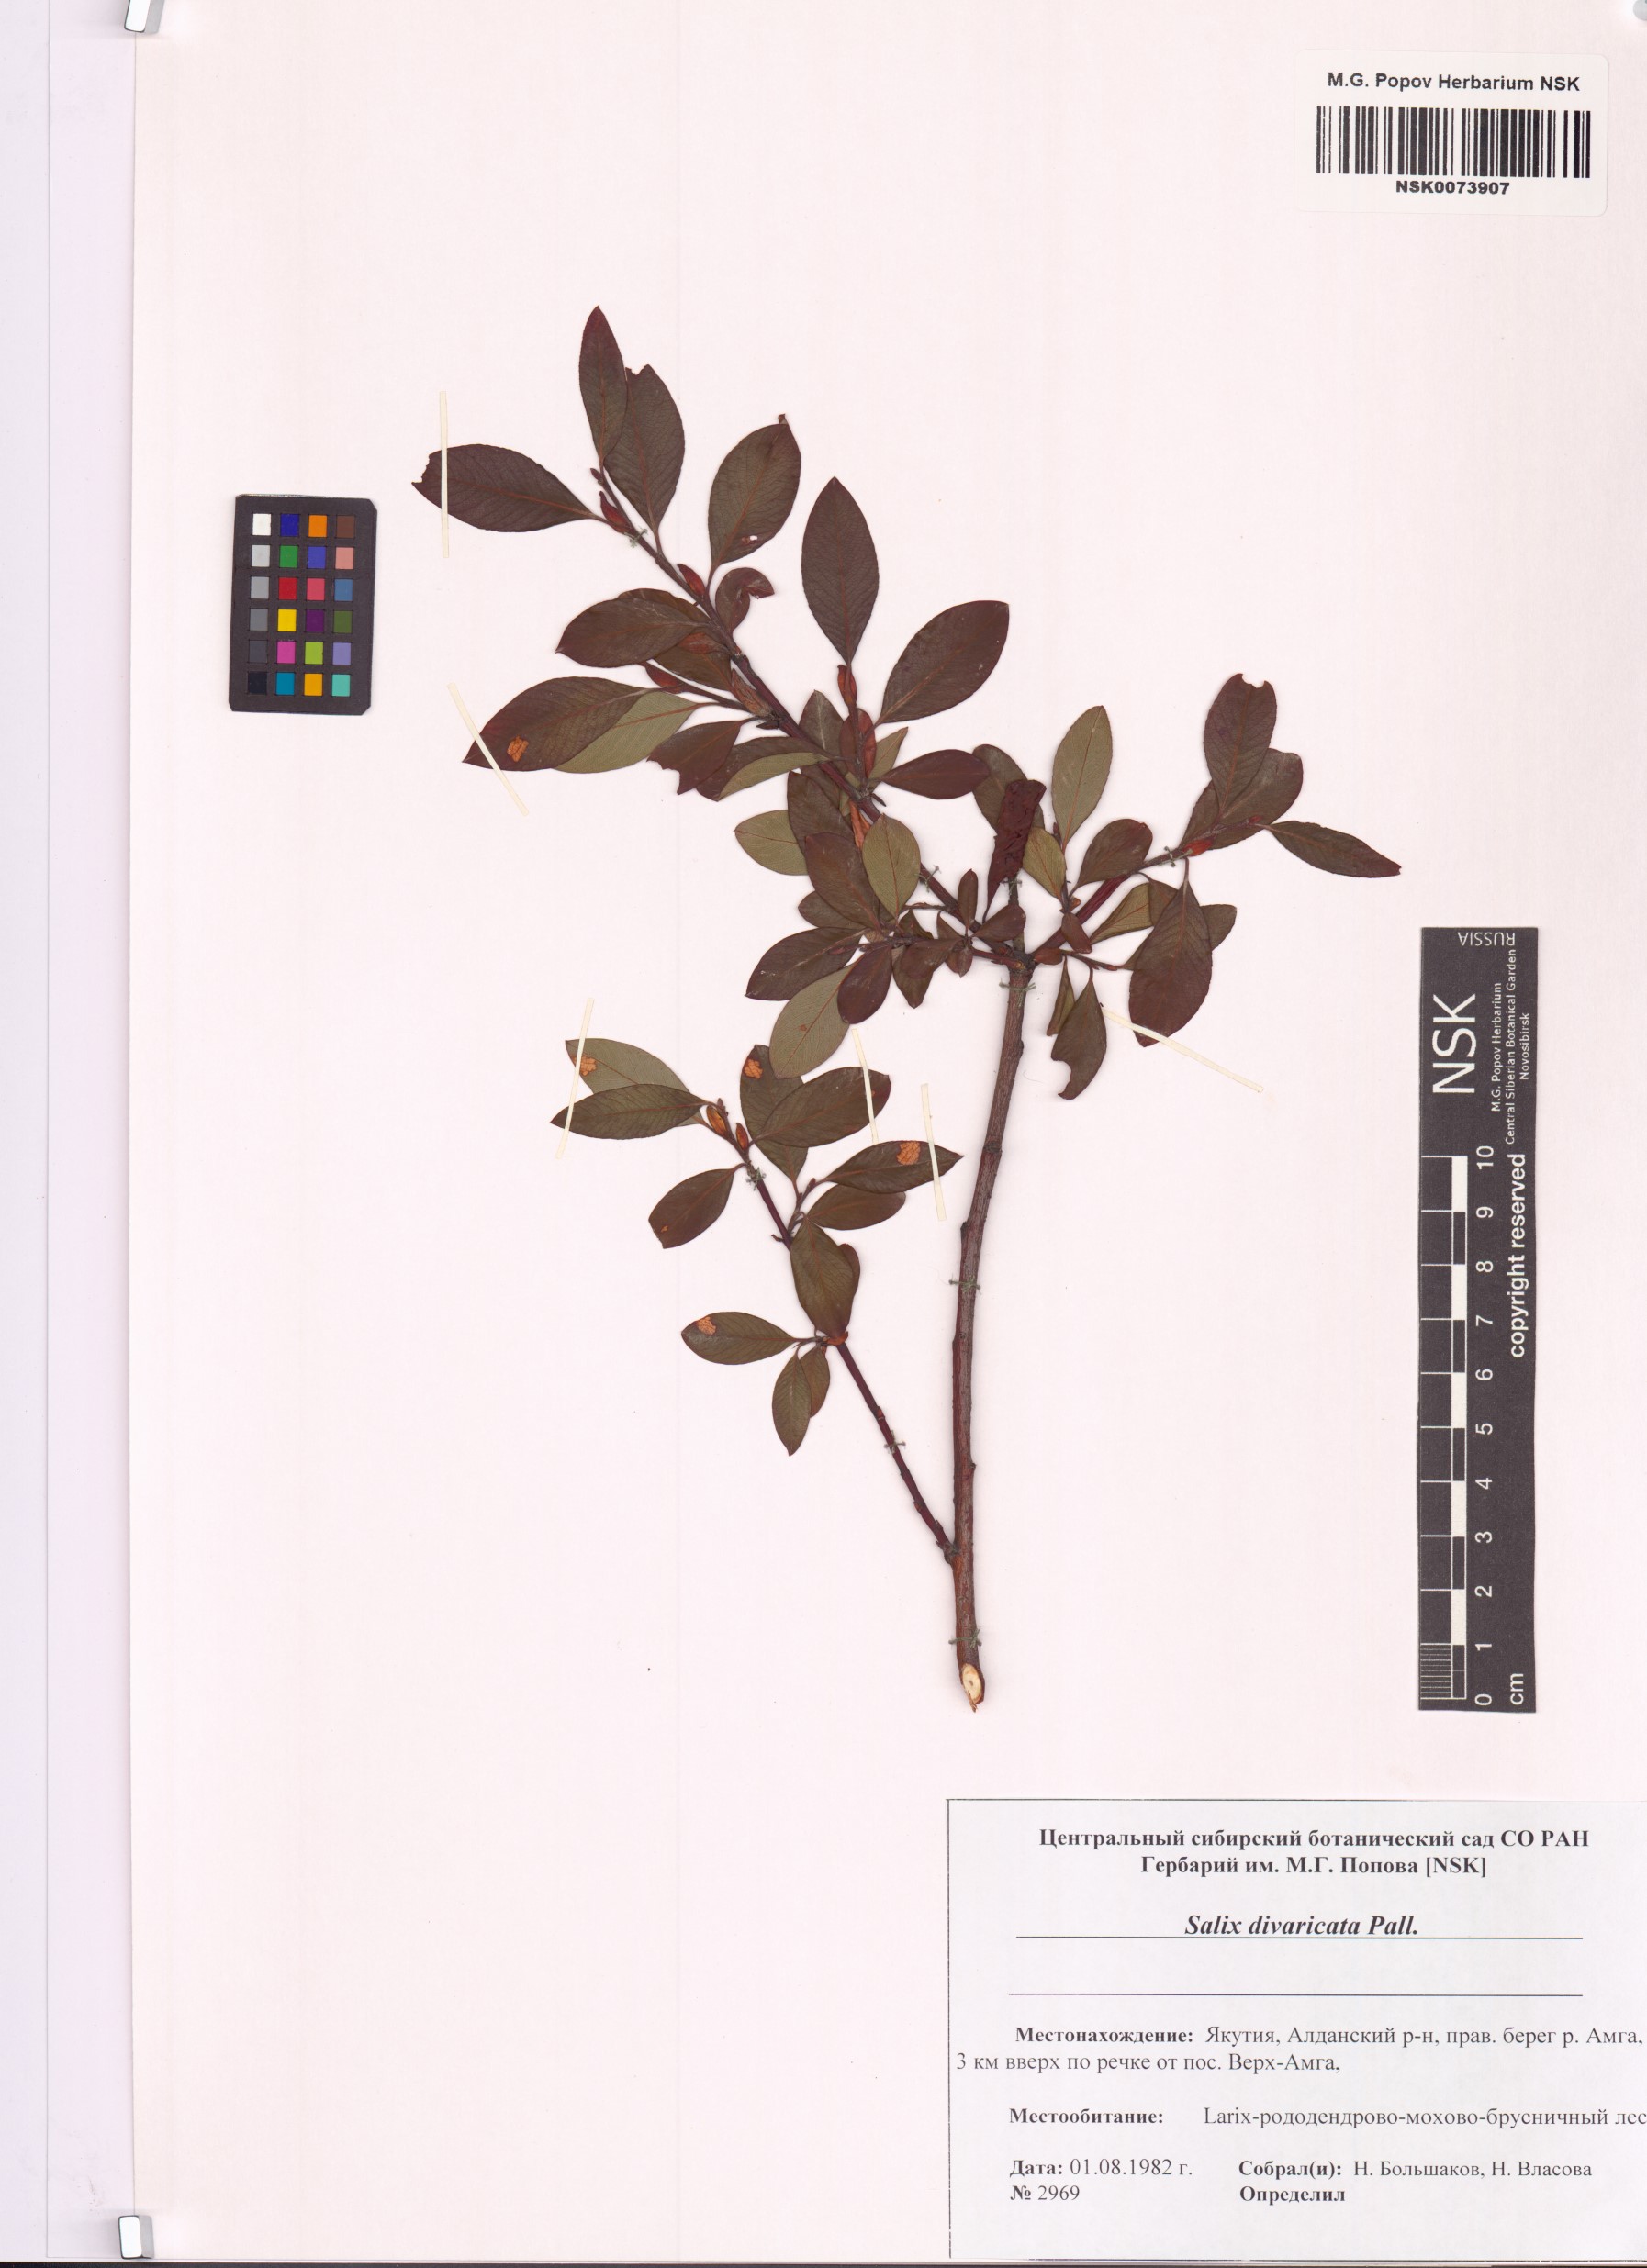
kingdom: Plantae
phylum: Tracheophyta
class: Magnoliopsida
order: Malpighiales
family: Salicaceae
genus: Salix
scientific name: Salix divaricata
